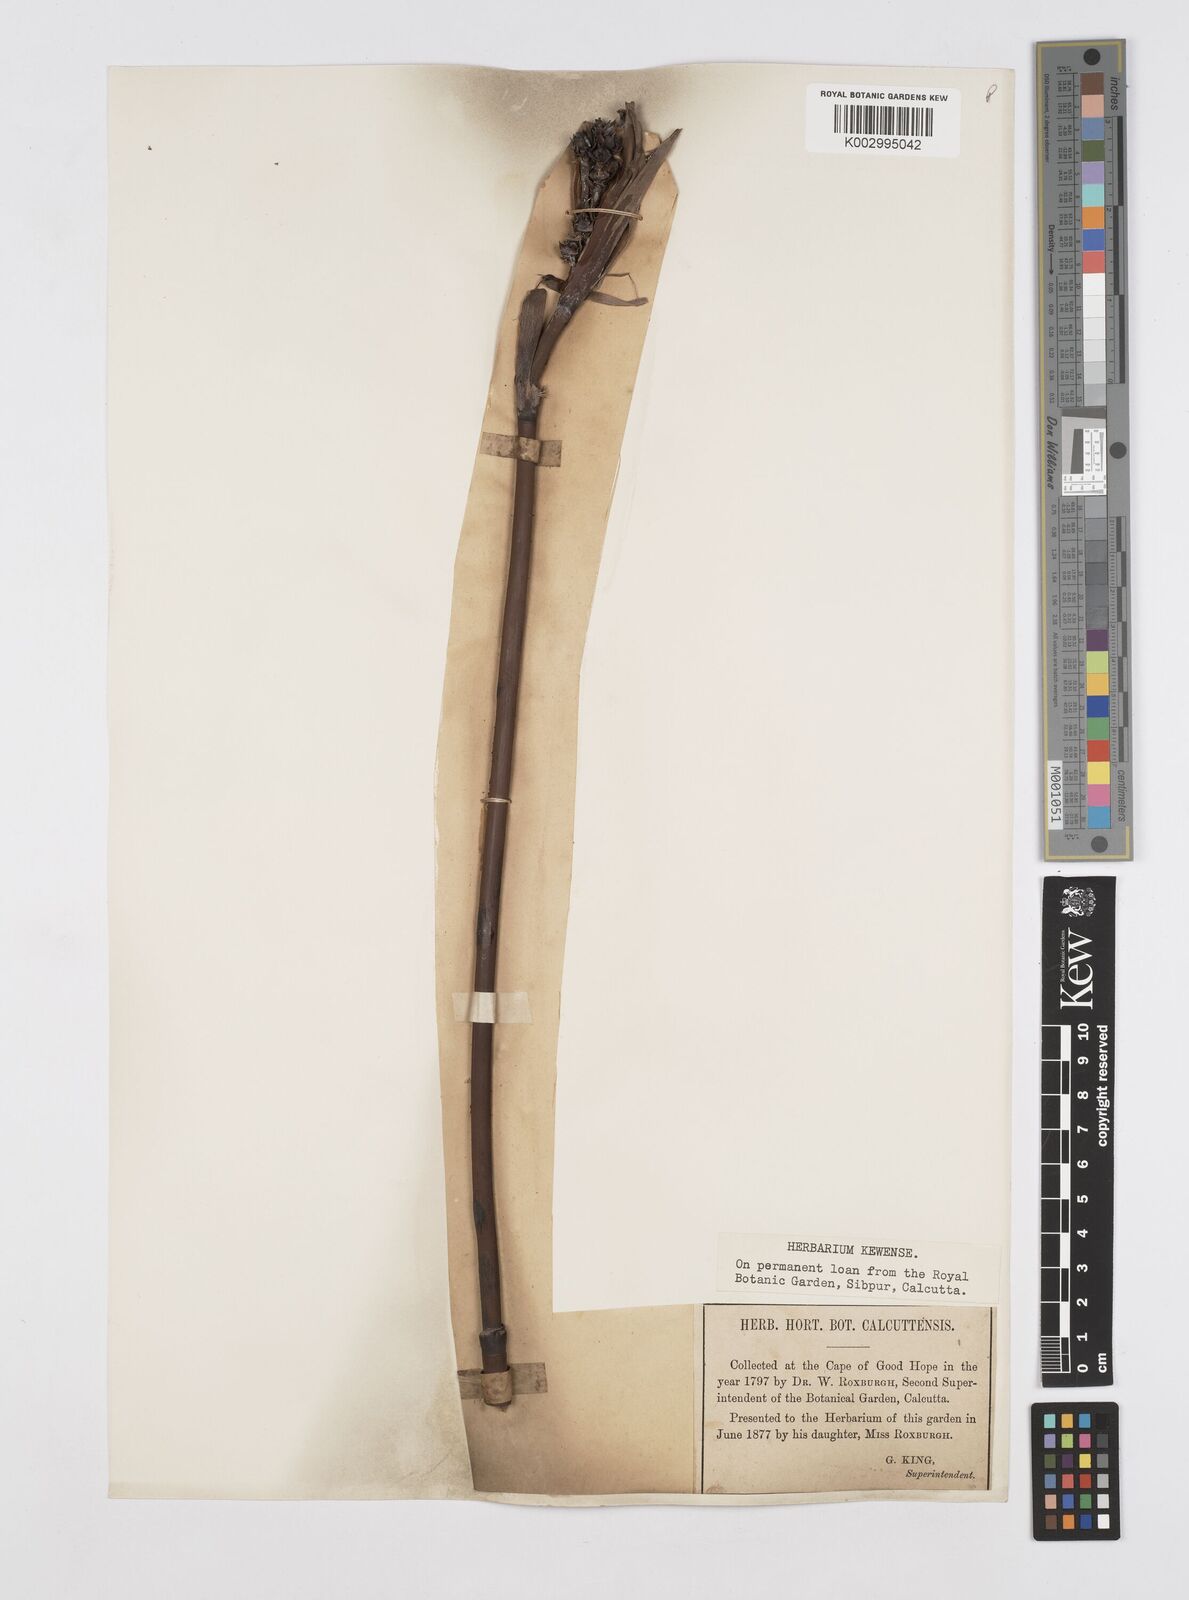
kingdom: Plantae
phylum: Tracheophyta
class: Liliopsida
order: Poales
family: Restionaceae
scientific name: Restionaceae
